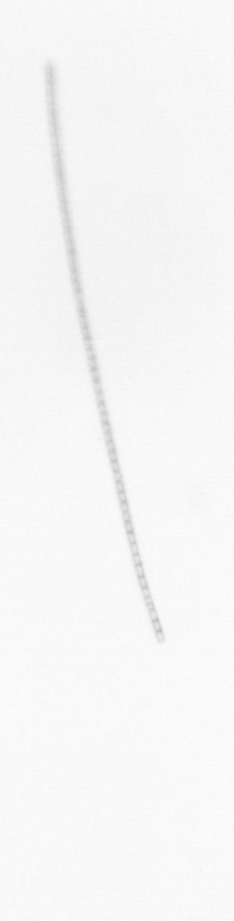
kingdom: Chromista
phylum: Ochrophyta
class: Bacillariophyceae
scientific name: Bacillariophyceae
